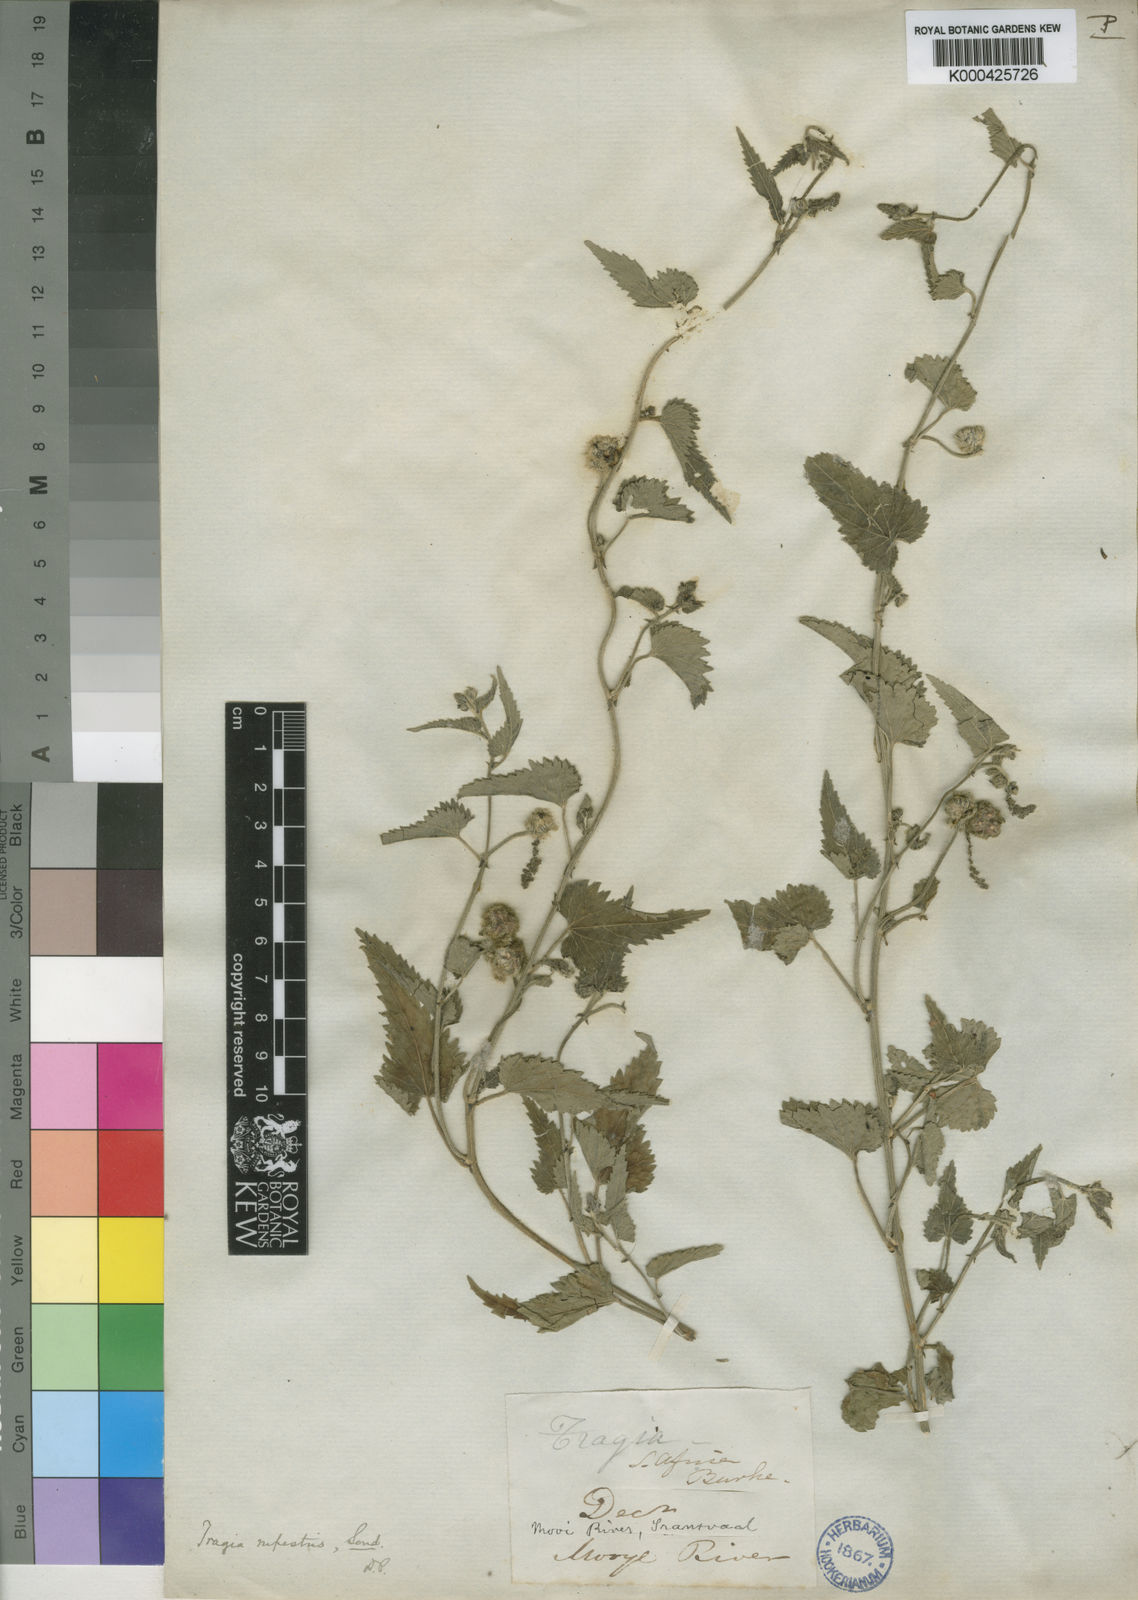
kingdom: Plantae
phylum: Tracheophyta
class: Magnoliopsida
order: Malpighiales
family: Euphorbiaceae
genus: Tragia
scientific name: Tragia rupestris
